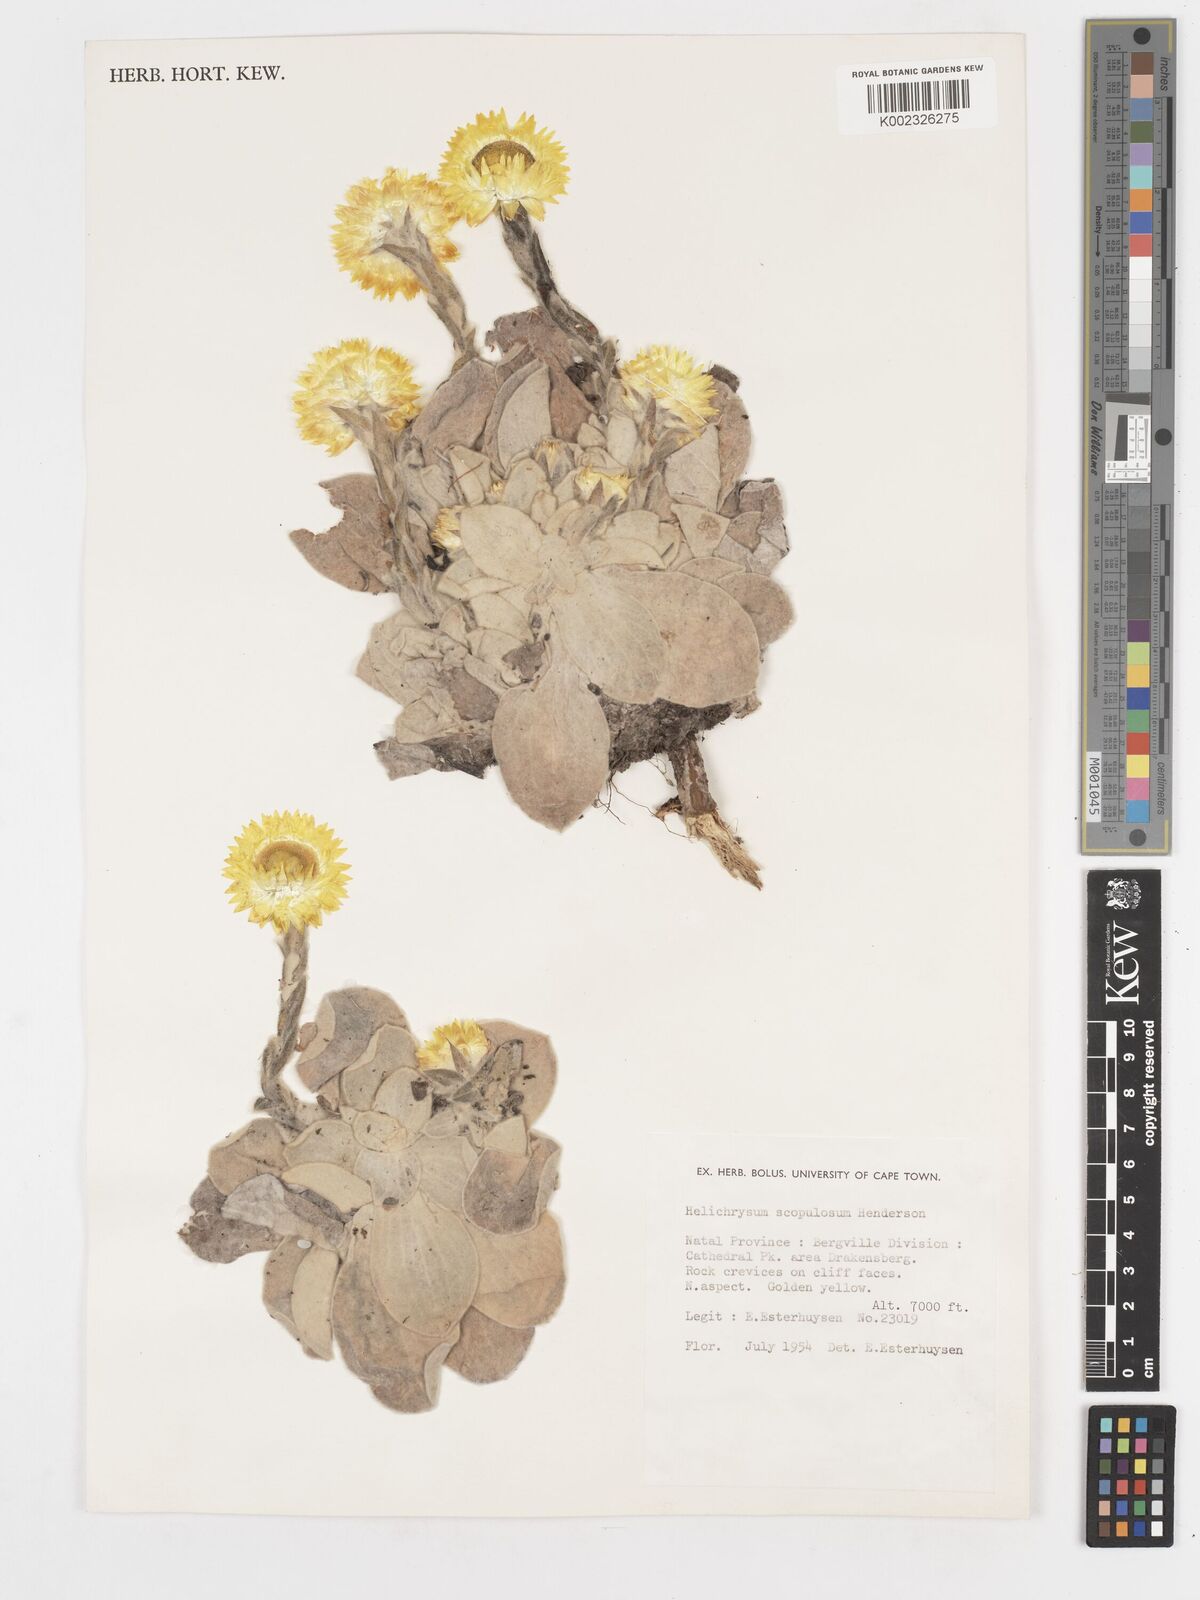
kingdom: Plantae
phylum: Tracheophyta
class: Magnoliopsida
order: Asterales
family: Asteraceae
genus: Helichrysum
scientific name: Helichrysum aureum
